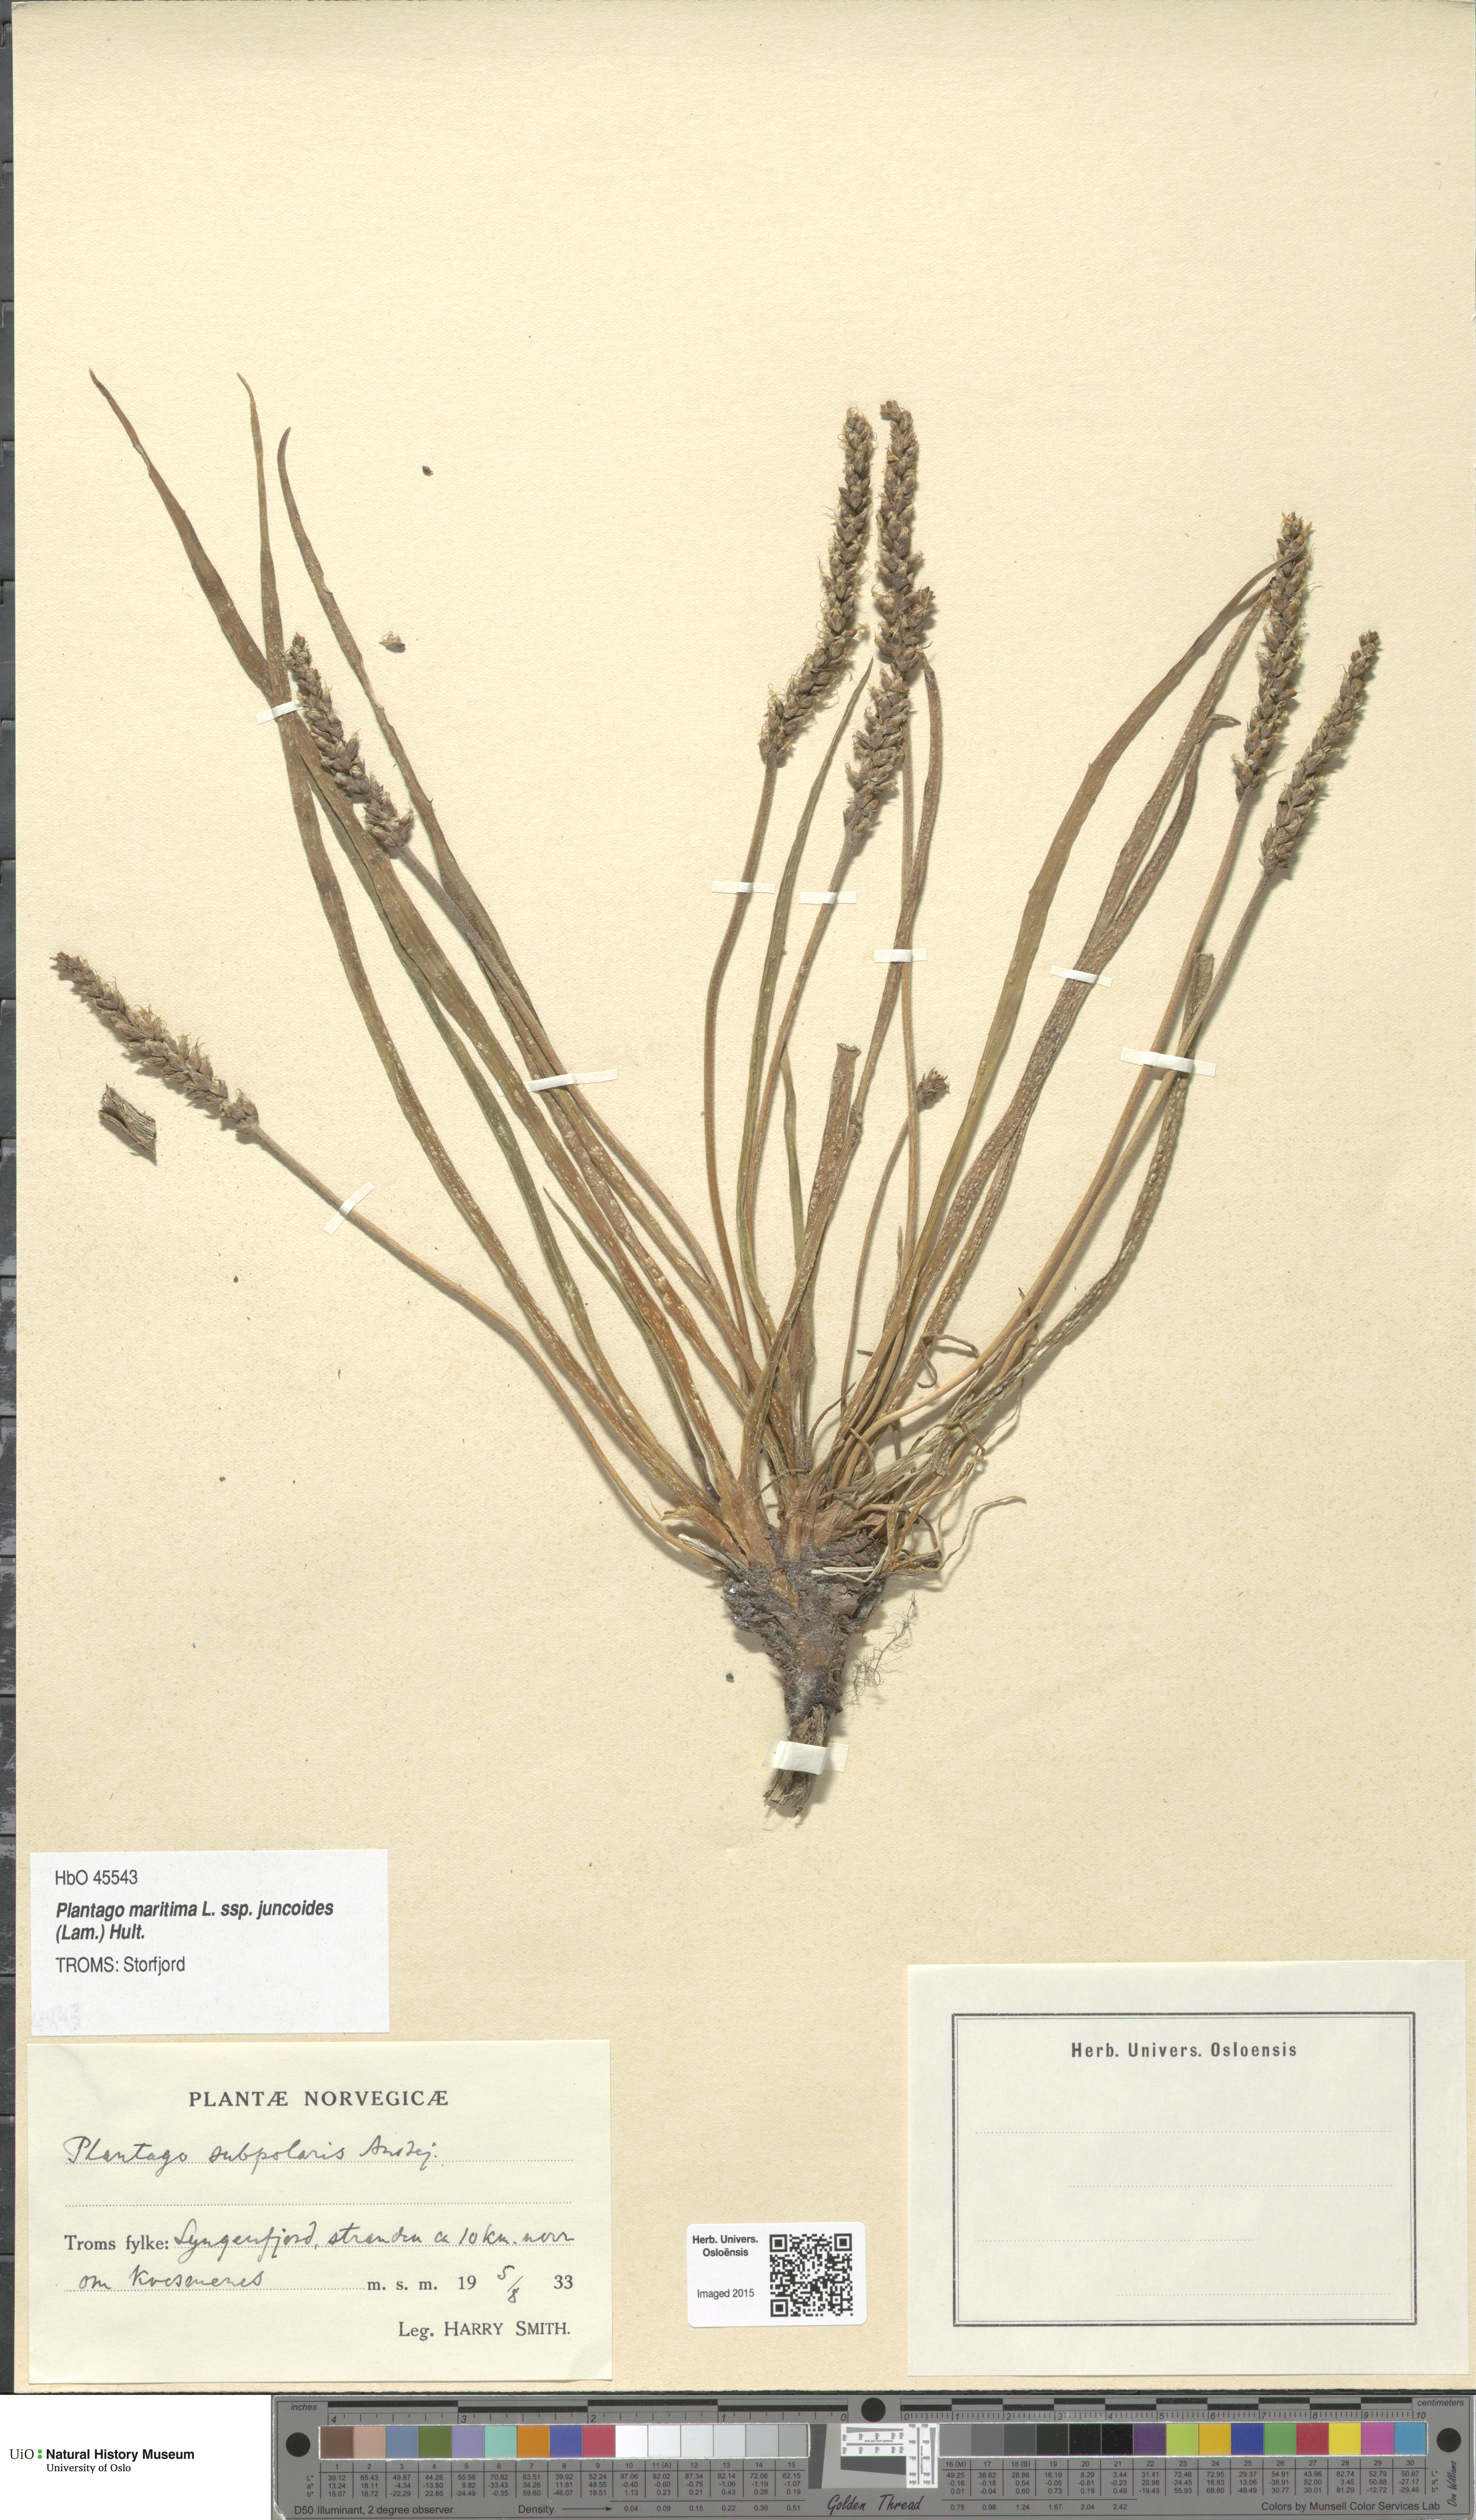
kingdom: Plantae
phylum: Tracheophyta
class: Magnoliopsida
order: Lamiales
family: Plantaginaceae
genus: Plantago
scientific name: Plantago maritima
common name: Sea plantain
